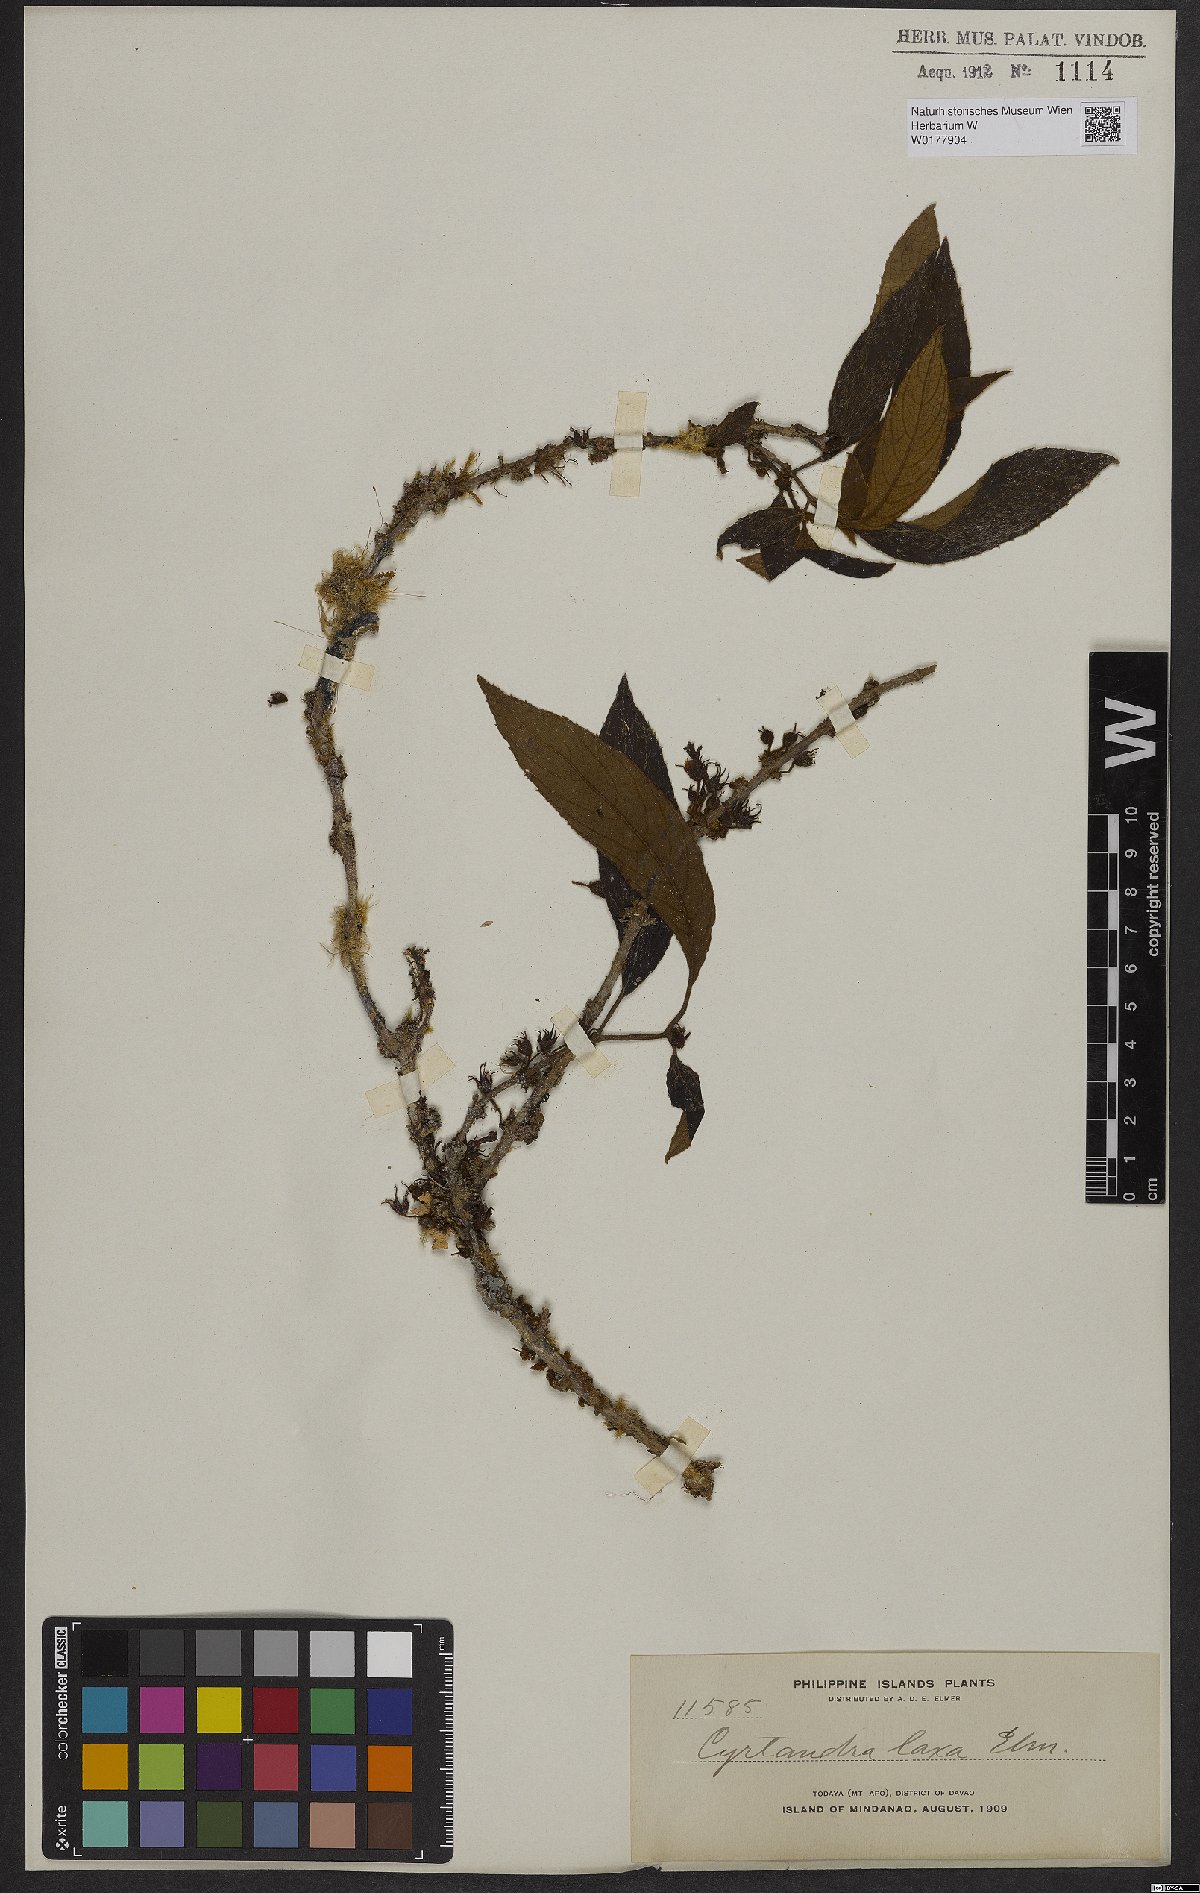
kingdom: Plantae
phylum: Tracheophyta
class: Magnoliopsida
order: Lamiales
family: Gesneriaceae
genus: Cyrtandra
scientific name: Cyrtandra pallida
